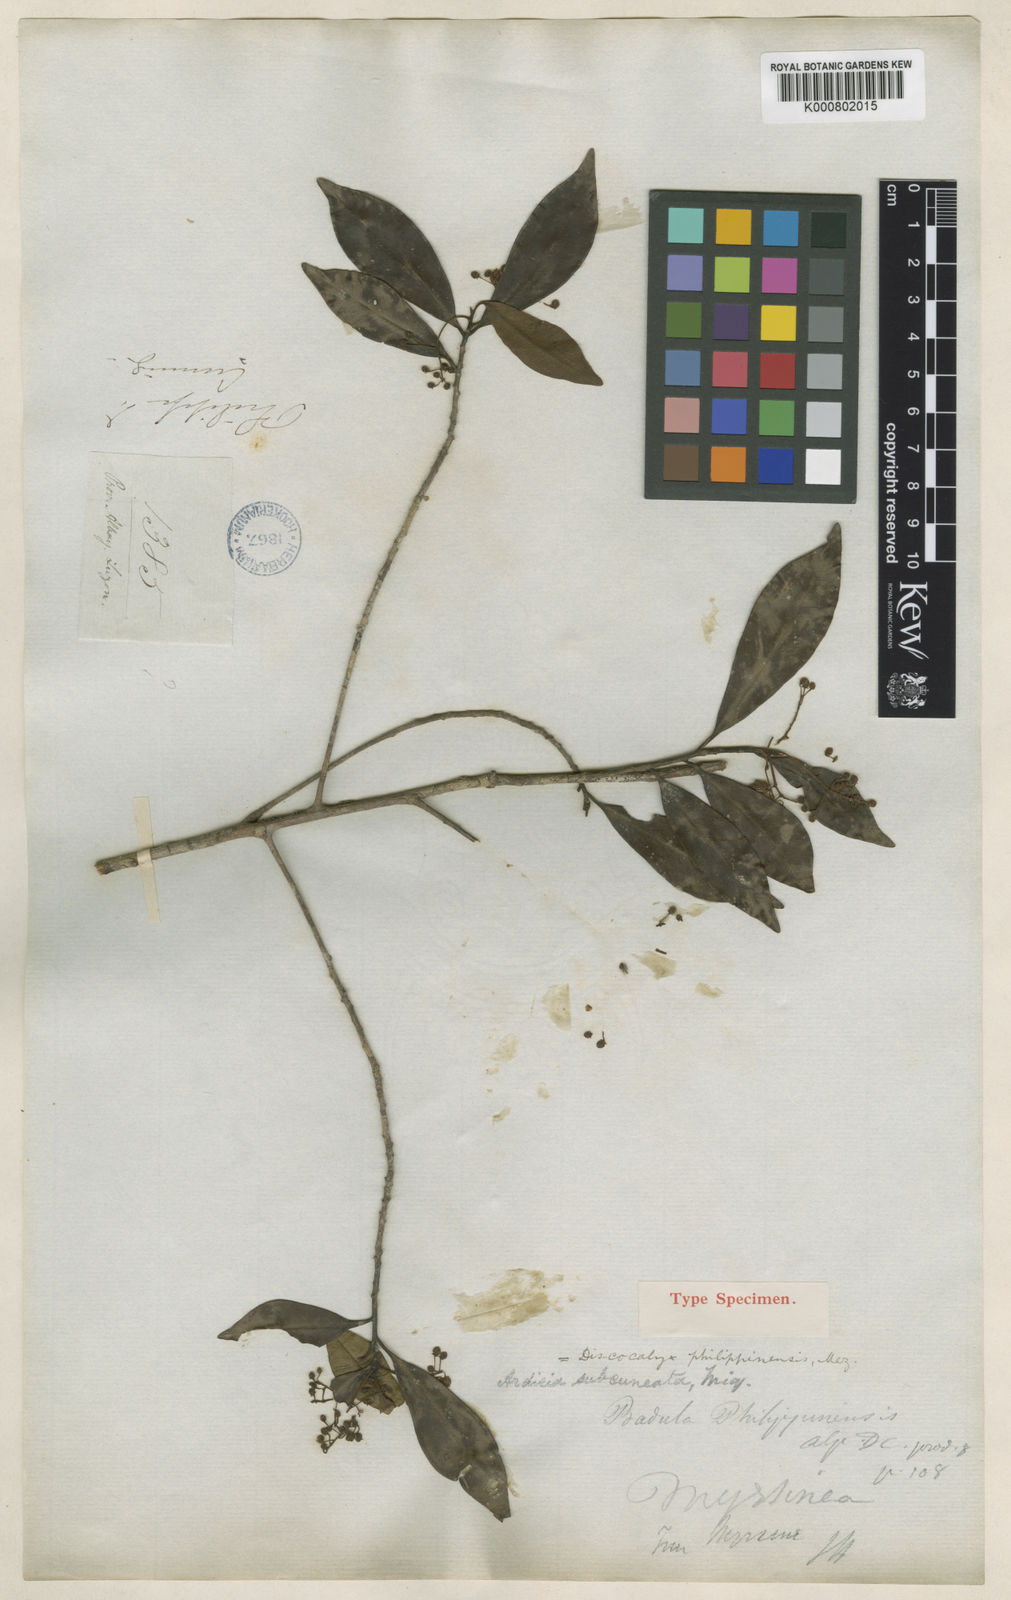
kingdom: Plantae
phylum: Tracheophyta
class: Magnoliopsida
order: Ericales
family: Primulaceae
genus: Discocalyx
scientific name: Discocalyx philippinensis
